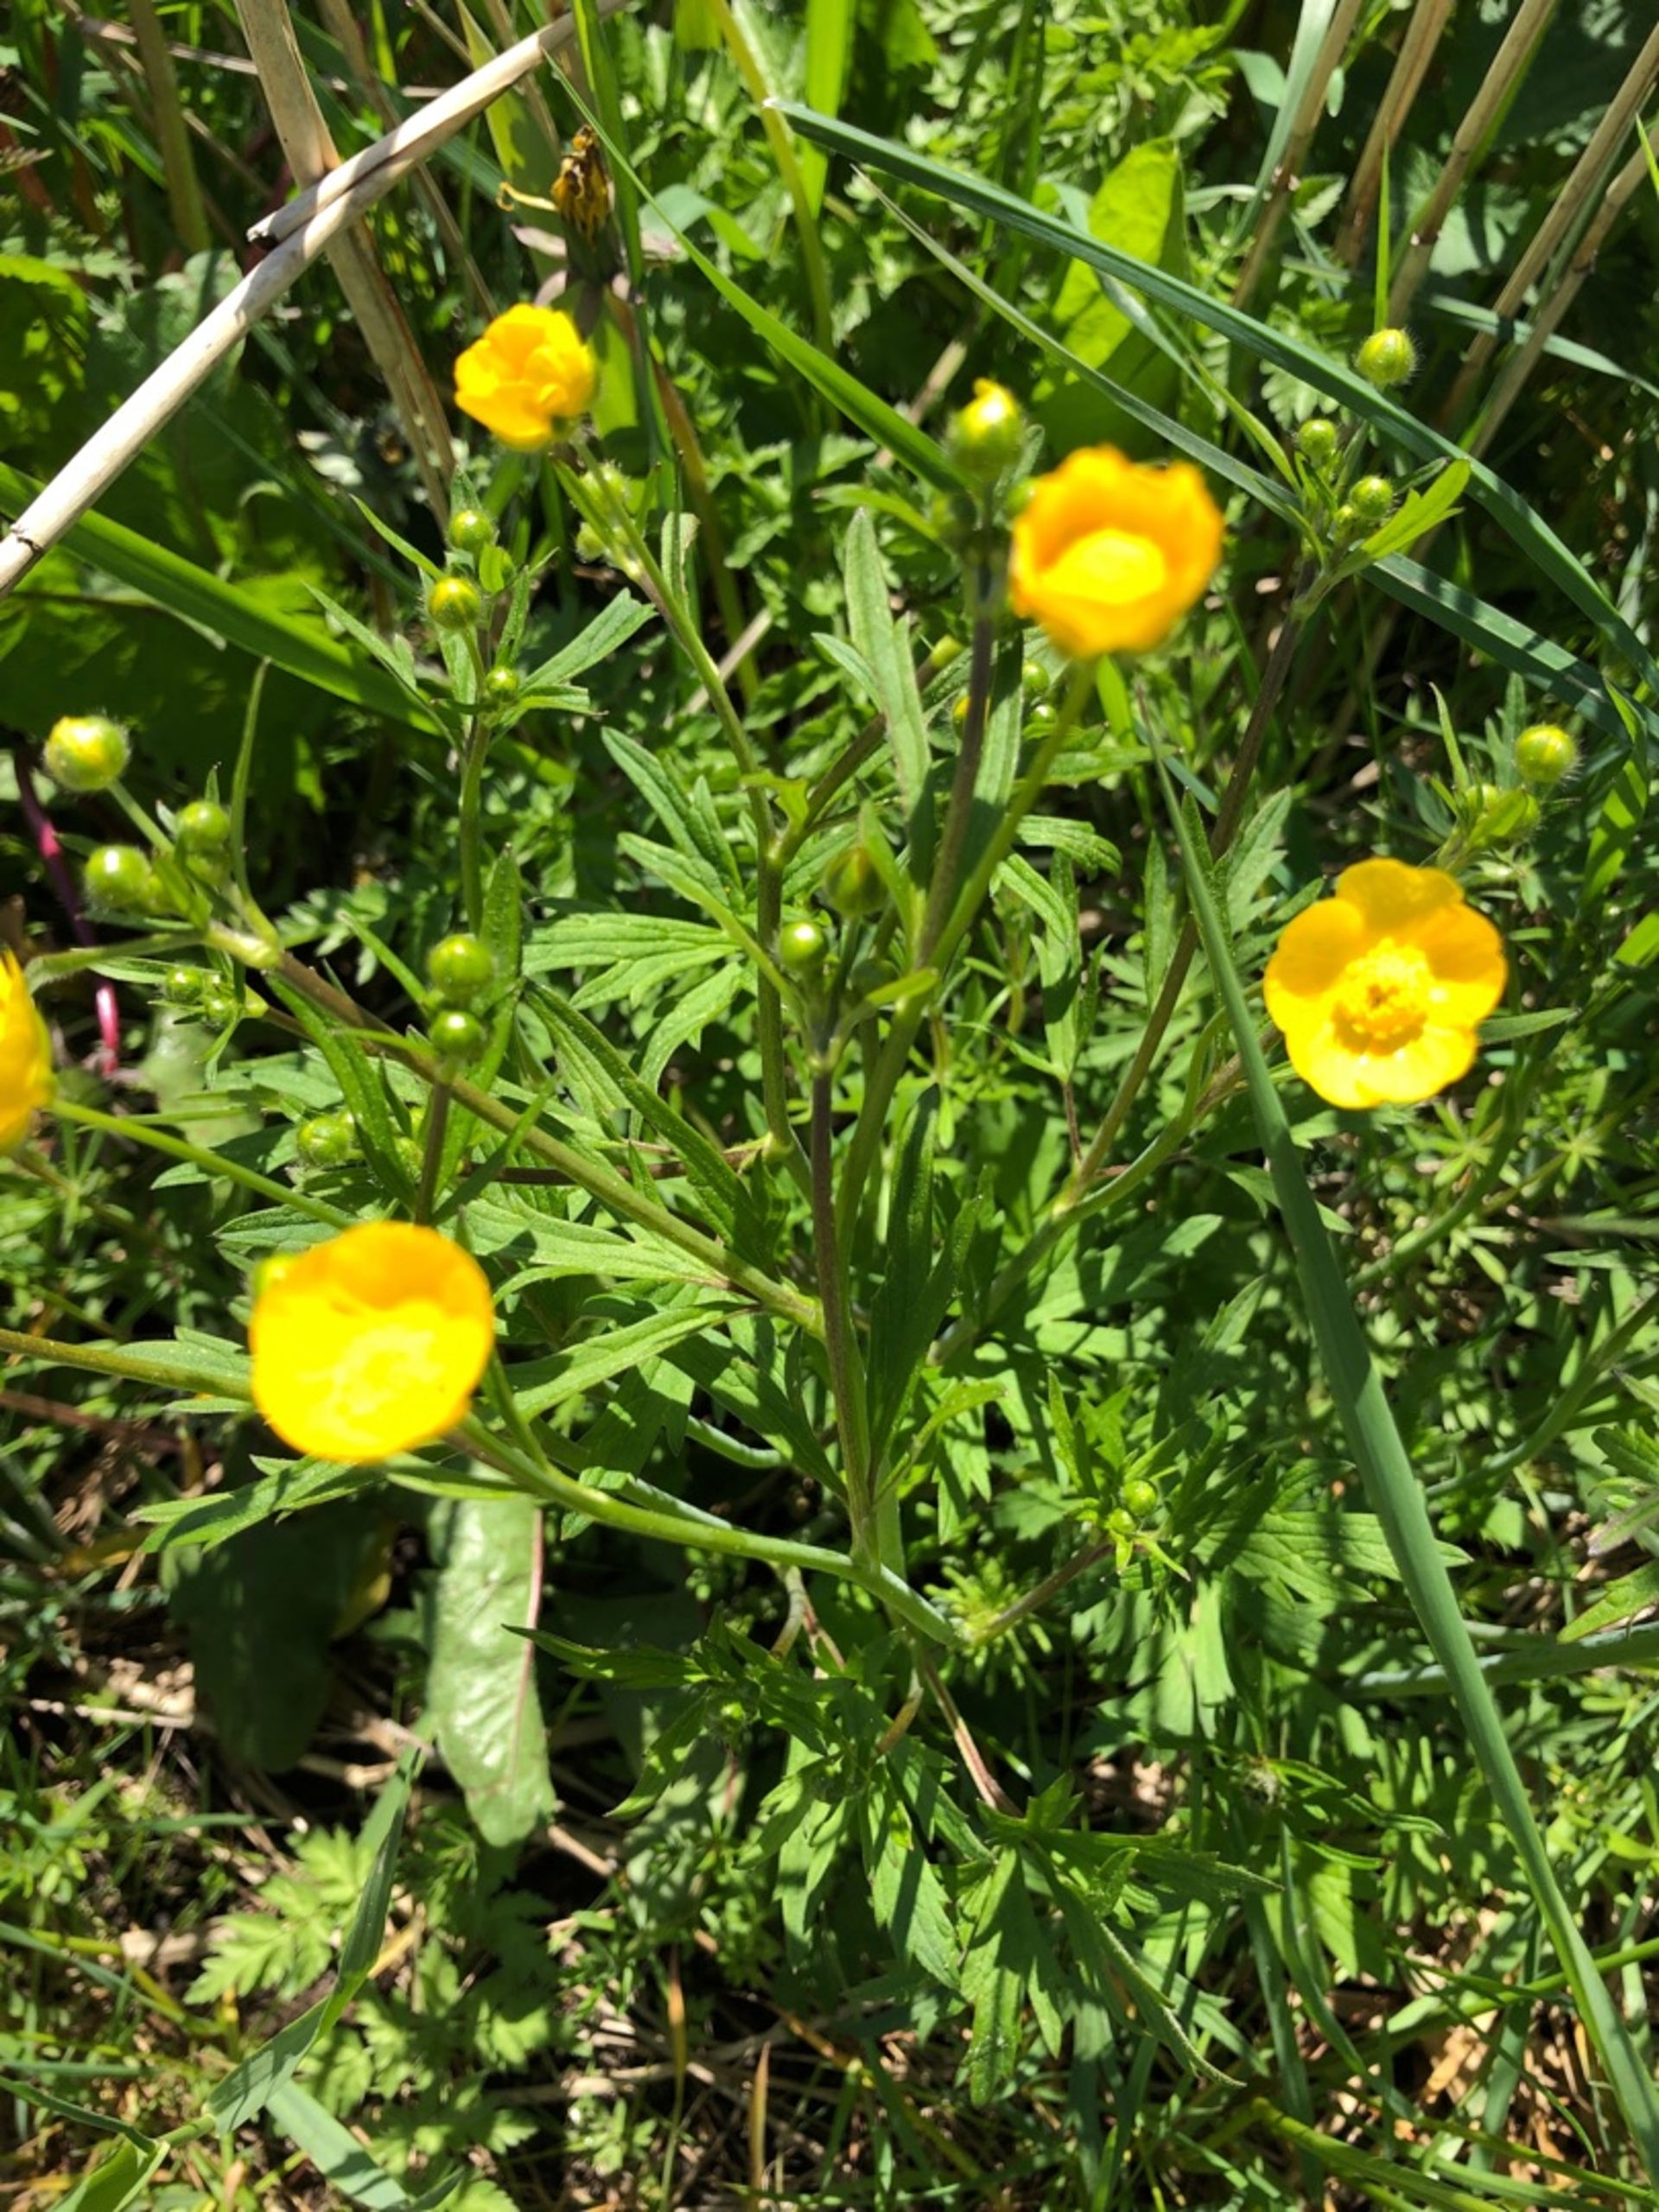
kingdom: Plantae
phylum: Tracheophyta
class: Magnoliopsida
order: Ranunculales
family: Ranunculaceae
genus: Ranunculus
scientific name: Ranunculus acris
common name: Bidende ranunkel
